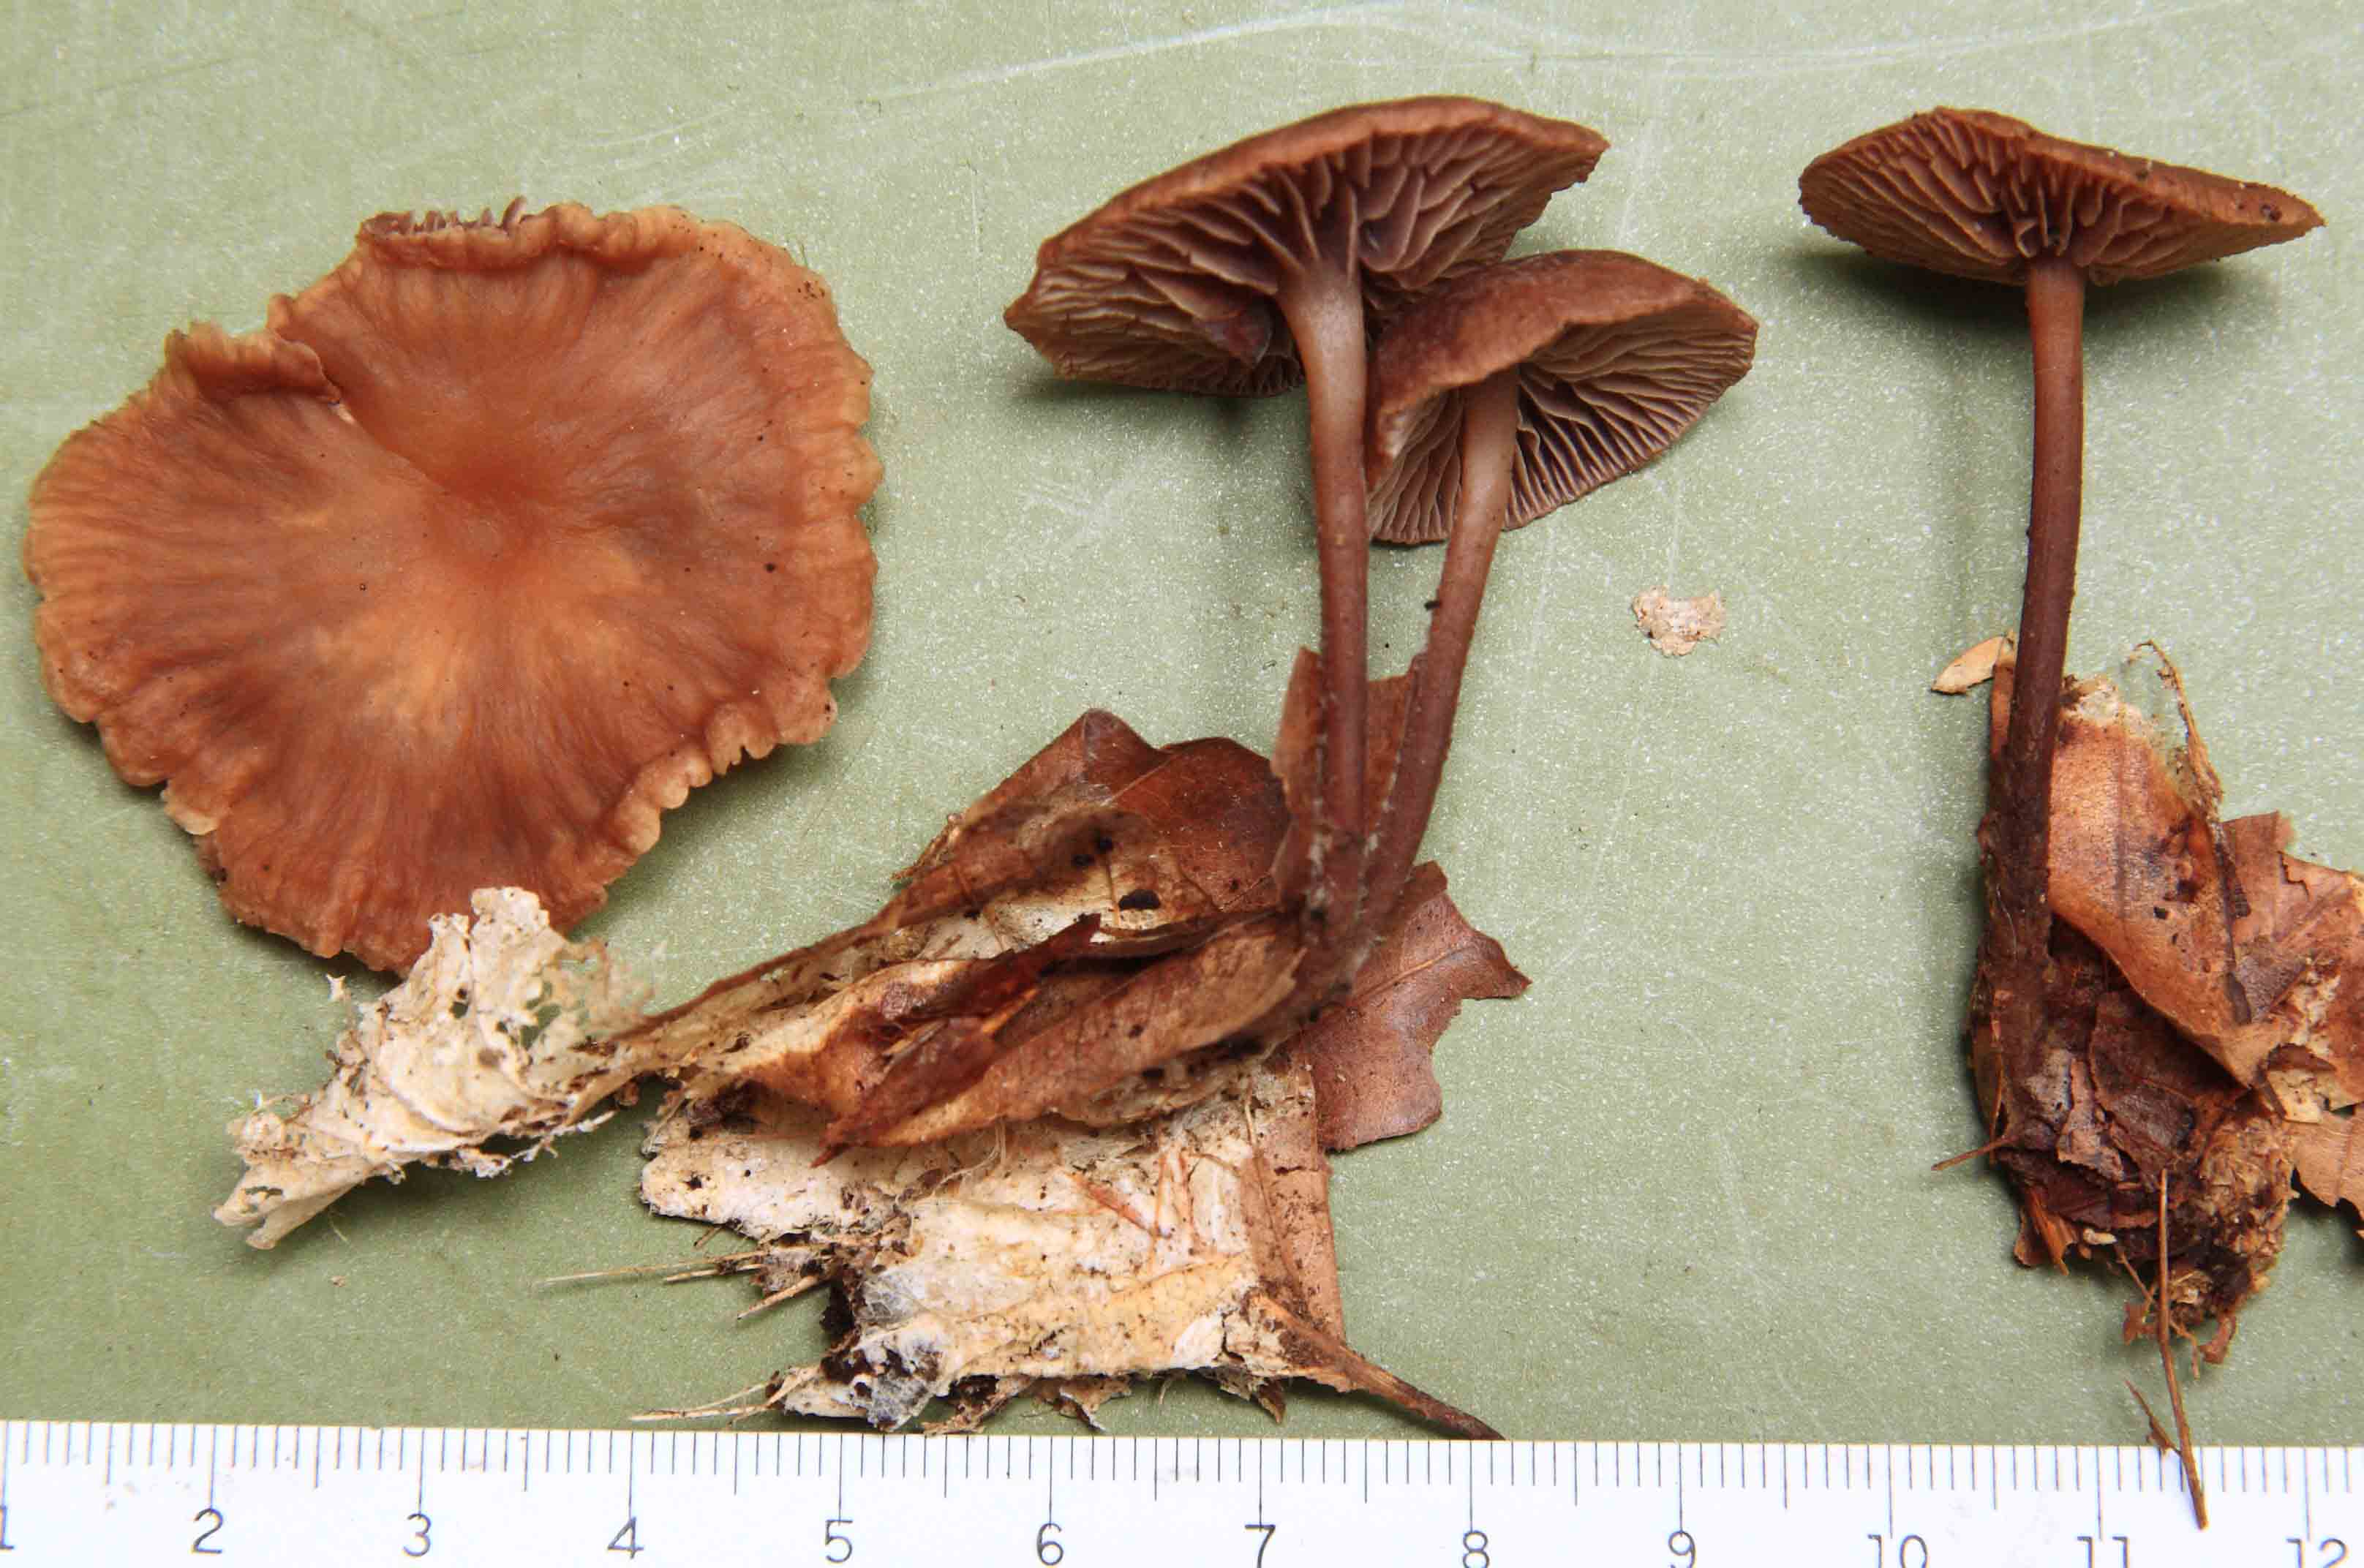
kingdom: Fungi
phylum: Basidiomycota
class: Agaricomycetes
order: Agaricales
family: Omphalotaceae
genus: Gymnopus
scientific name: Gymnopus fagiphilus
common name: bøgeløv-fladhat
